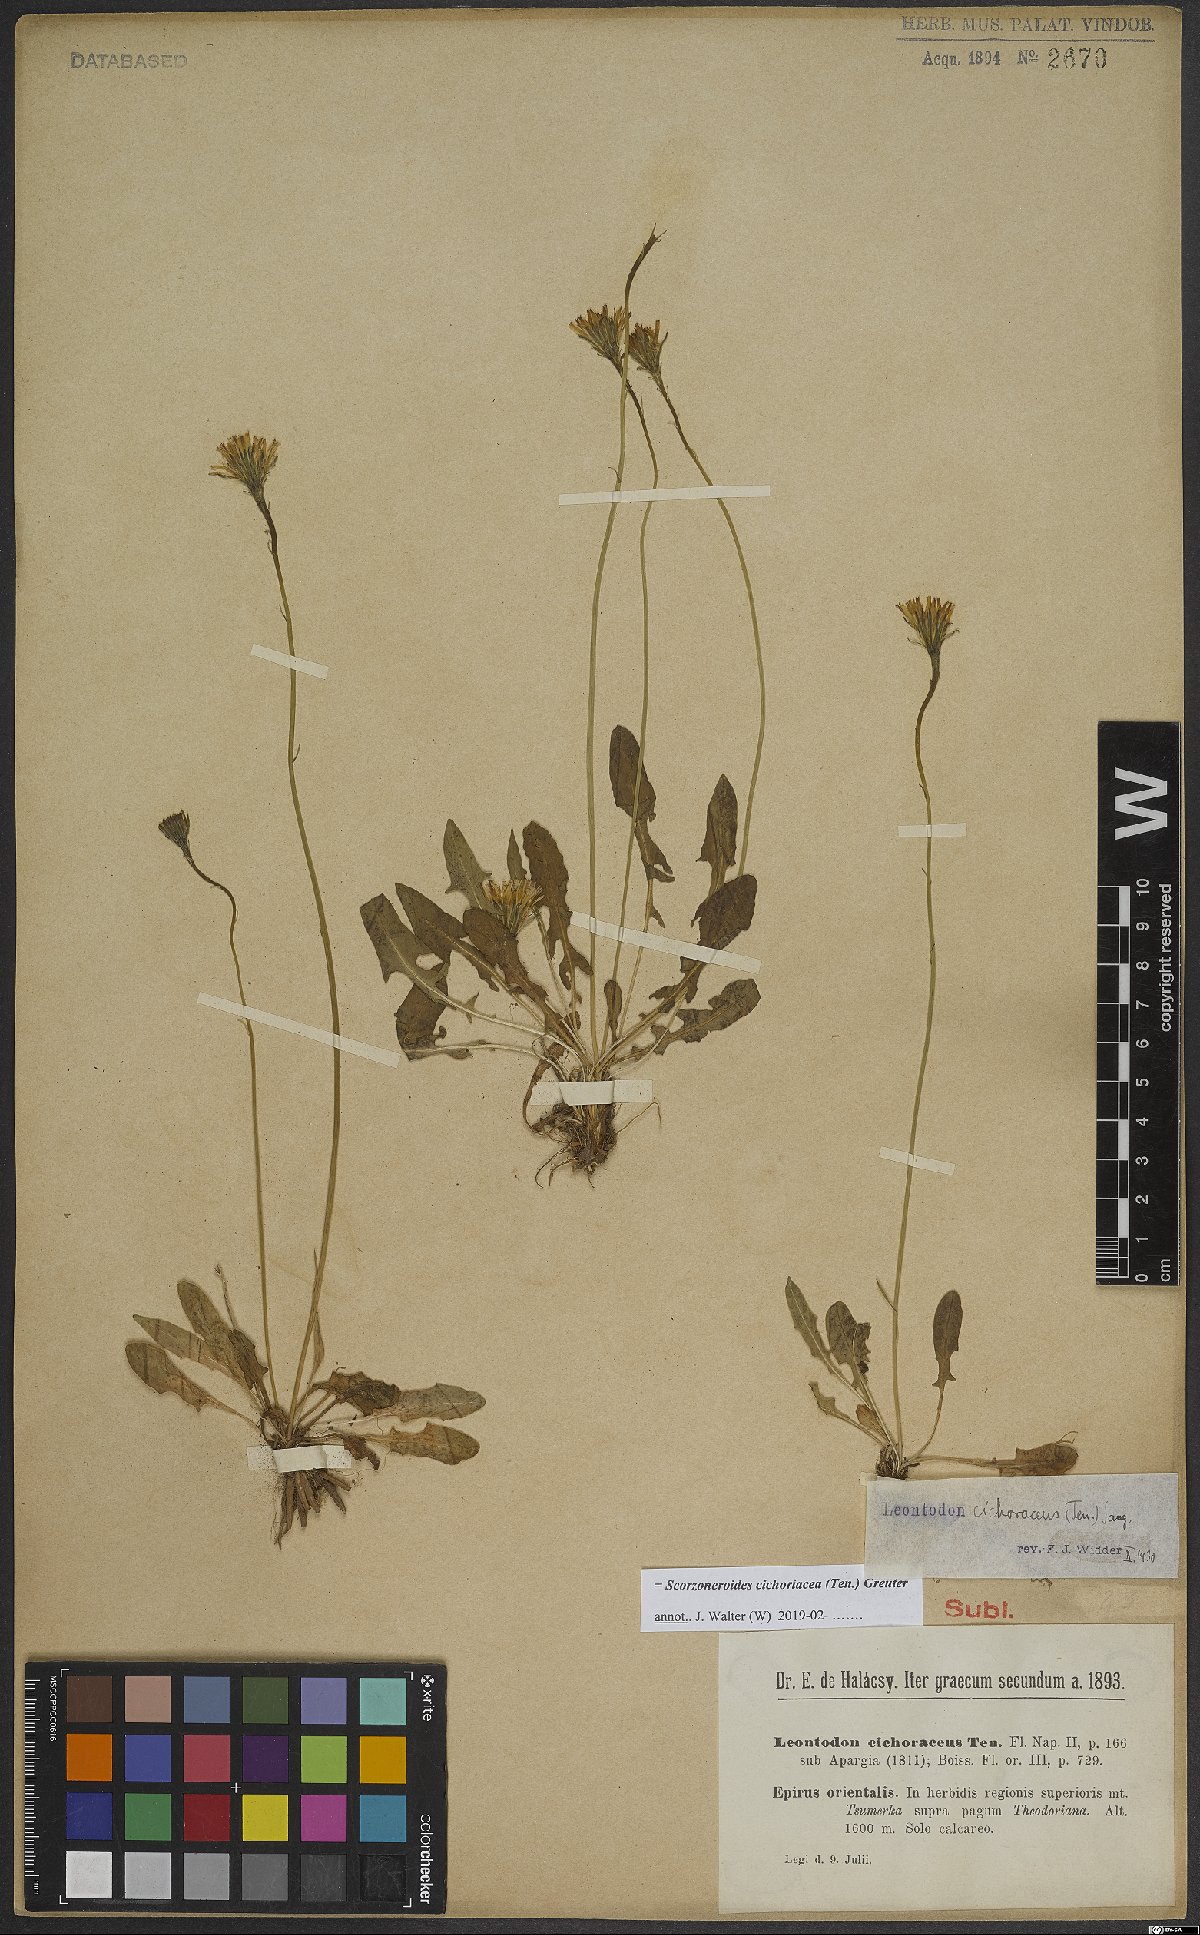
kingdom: Plantae
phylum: Tracheophyta
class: Magnoliopsida
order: Asterales
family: Asteraceae
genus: Scorzoneroides
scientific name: Scorzoneroides cichoriacea
